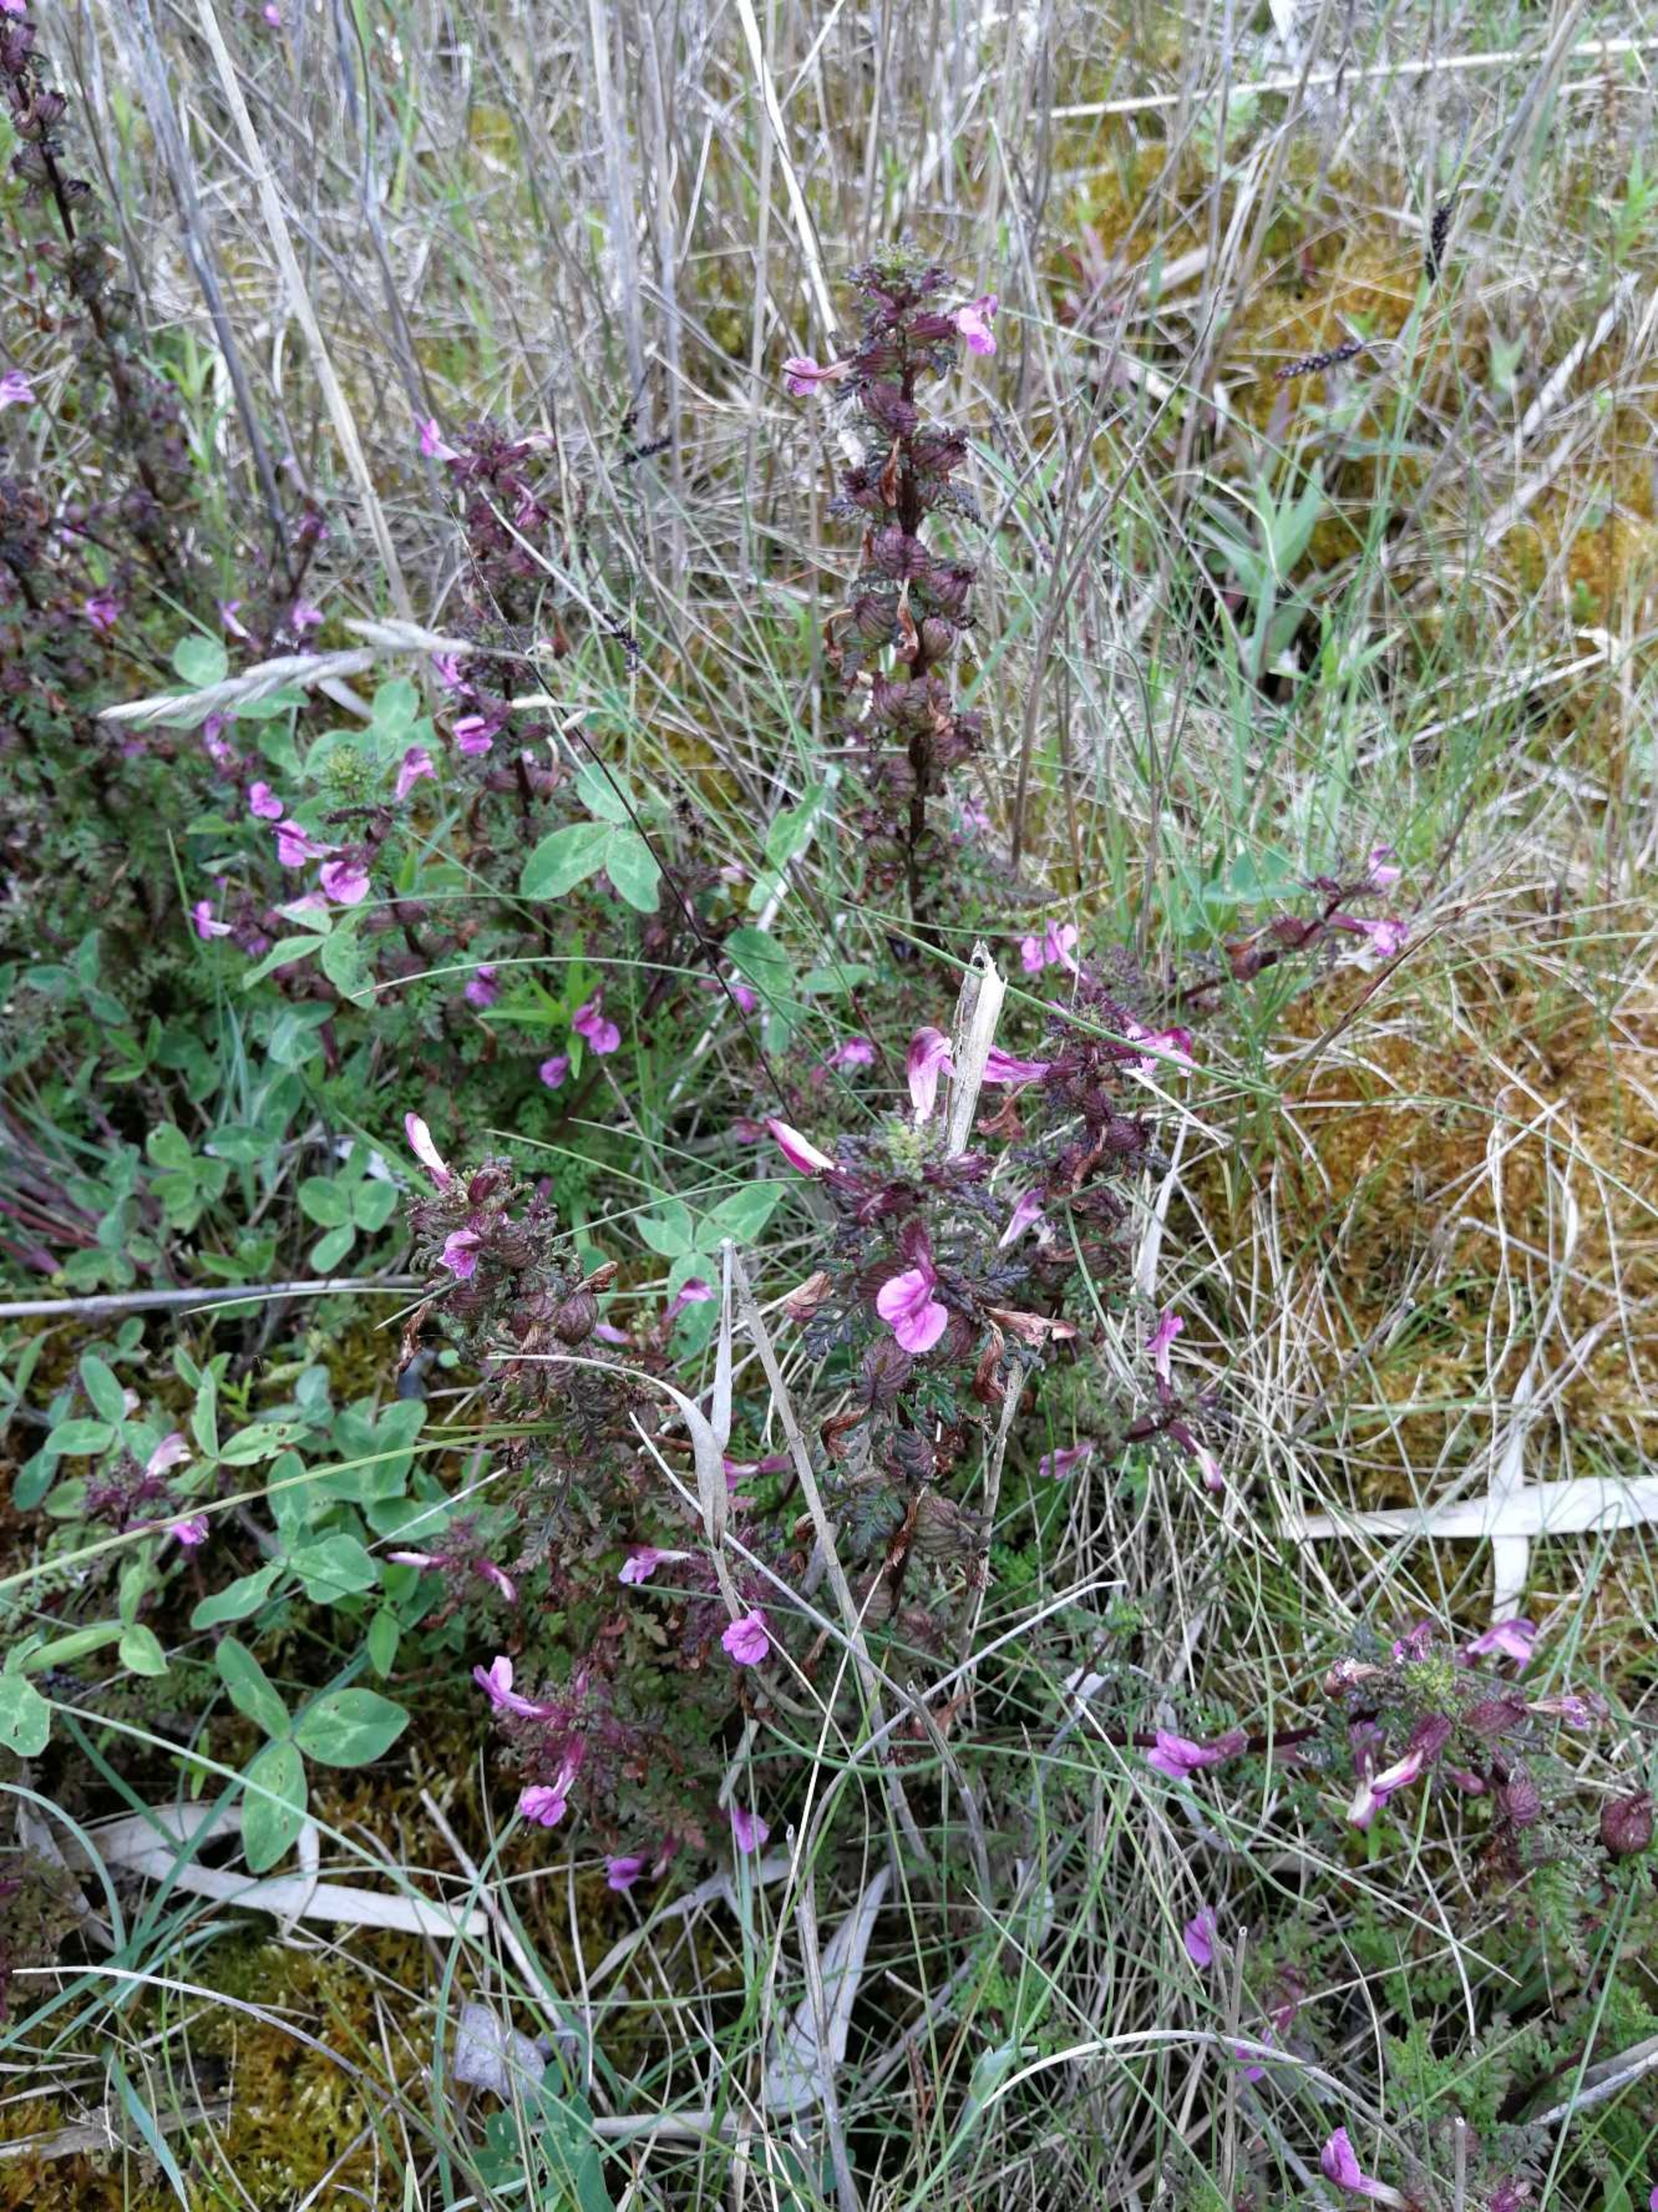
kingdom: Plantae
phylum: Tracheophyta
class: Magnoliopsida
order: Lamiales
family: Orobanchaceae
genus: Pedicularis
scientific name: Pedicularis palustris
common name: Eng-troldurt
